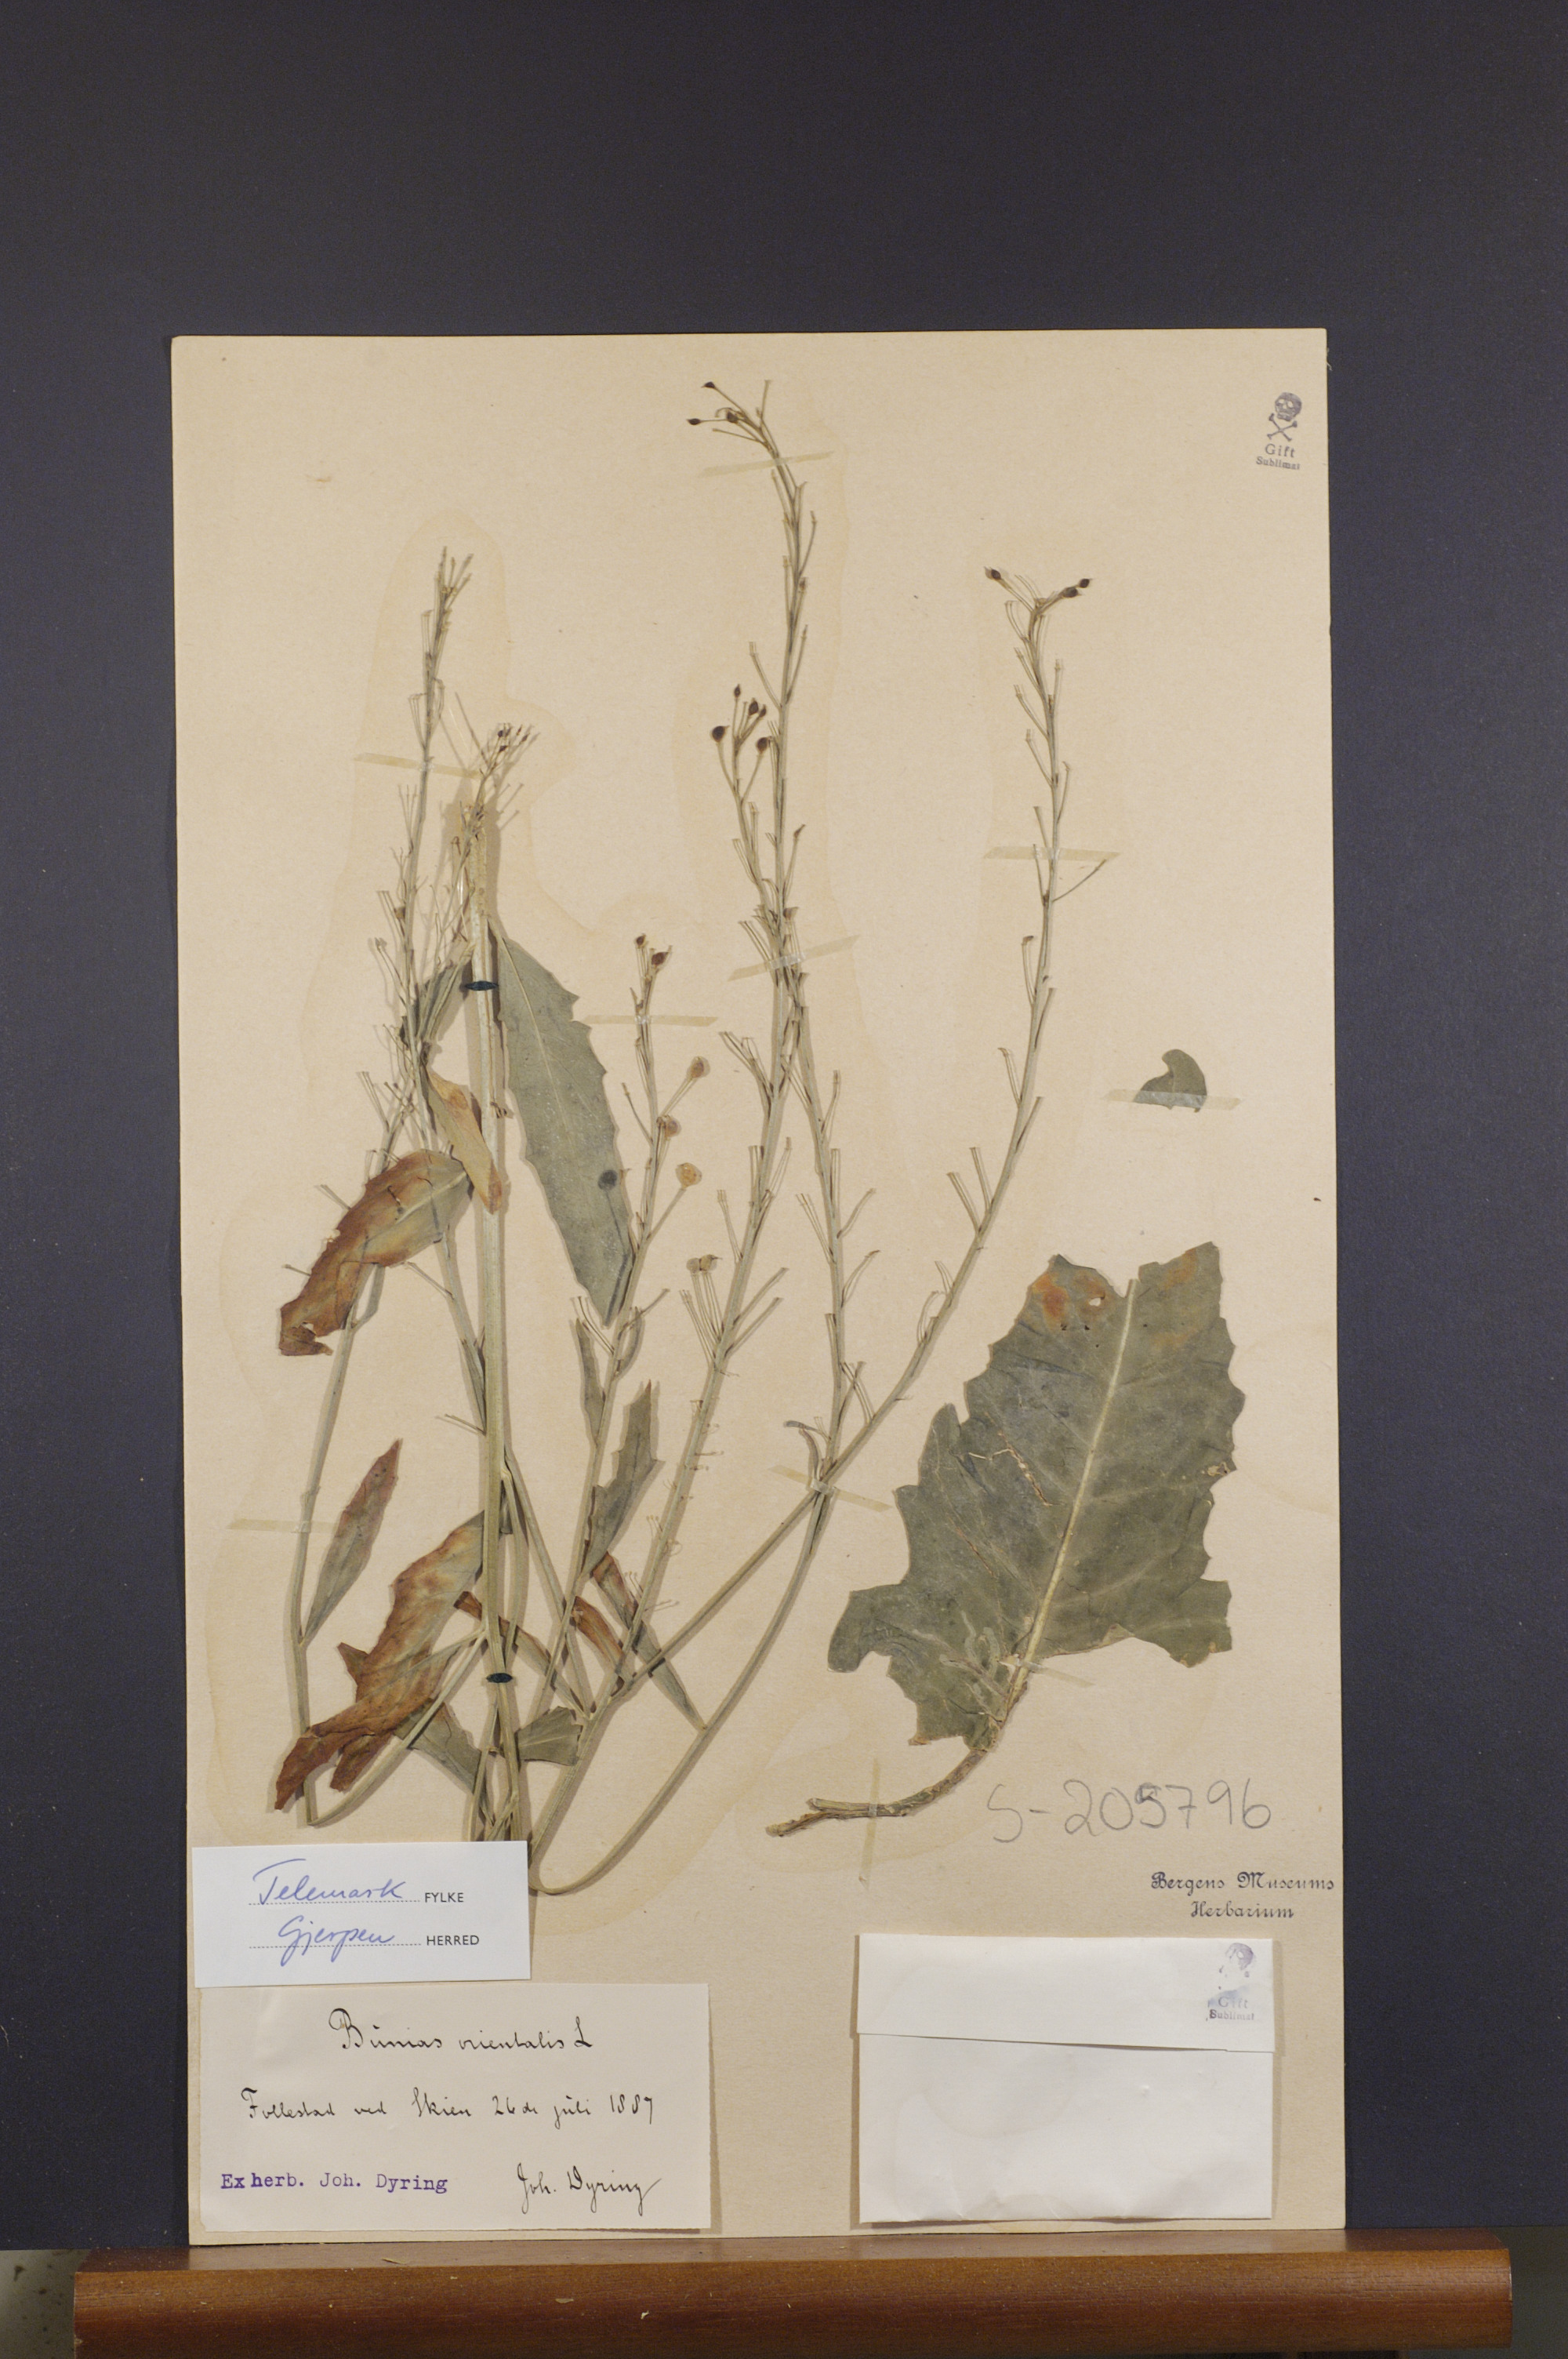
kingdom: Plantae
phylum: Tracheophyta
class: Magnoliopsida
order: Brassicales
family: Brassicaceae
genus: Bunias
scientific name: Bunias orientalis
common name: Warty-cabbage
